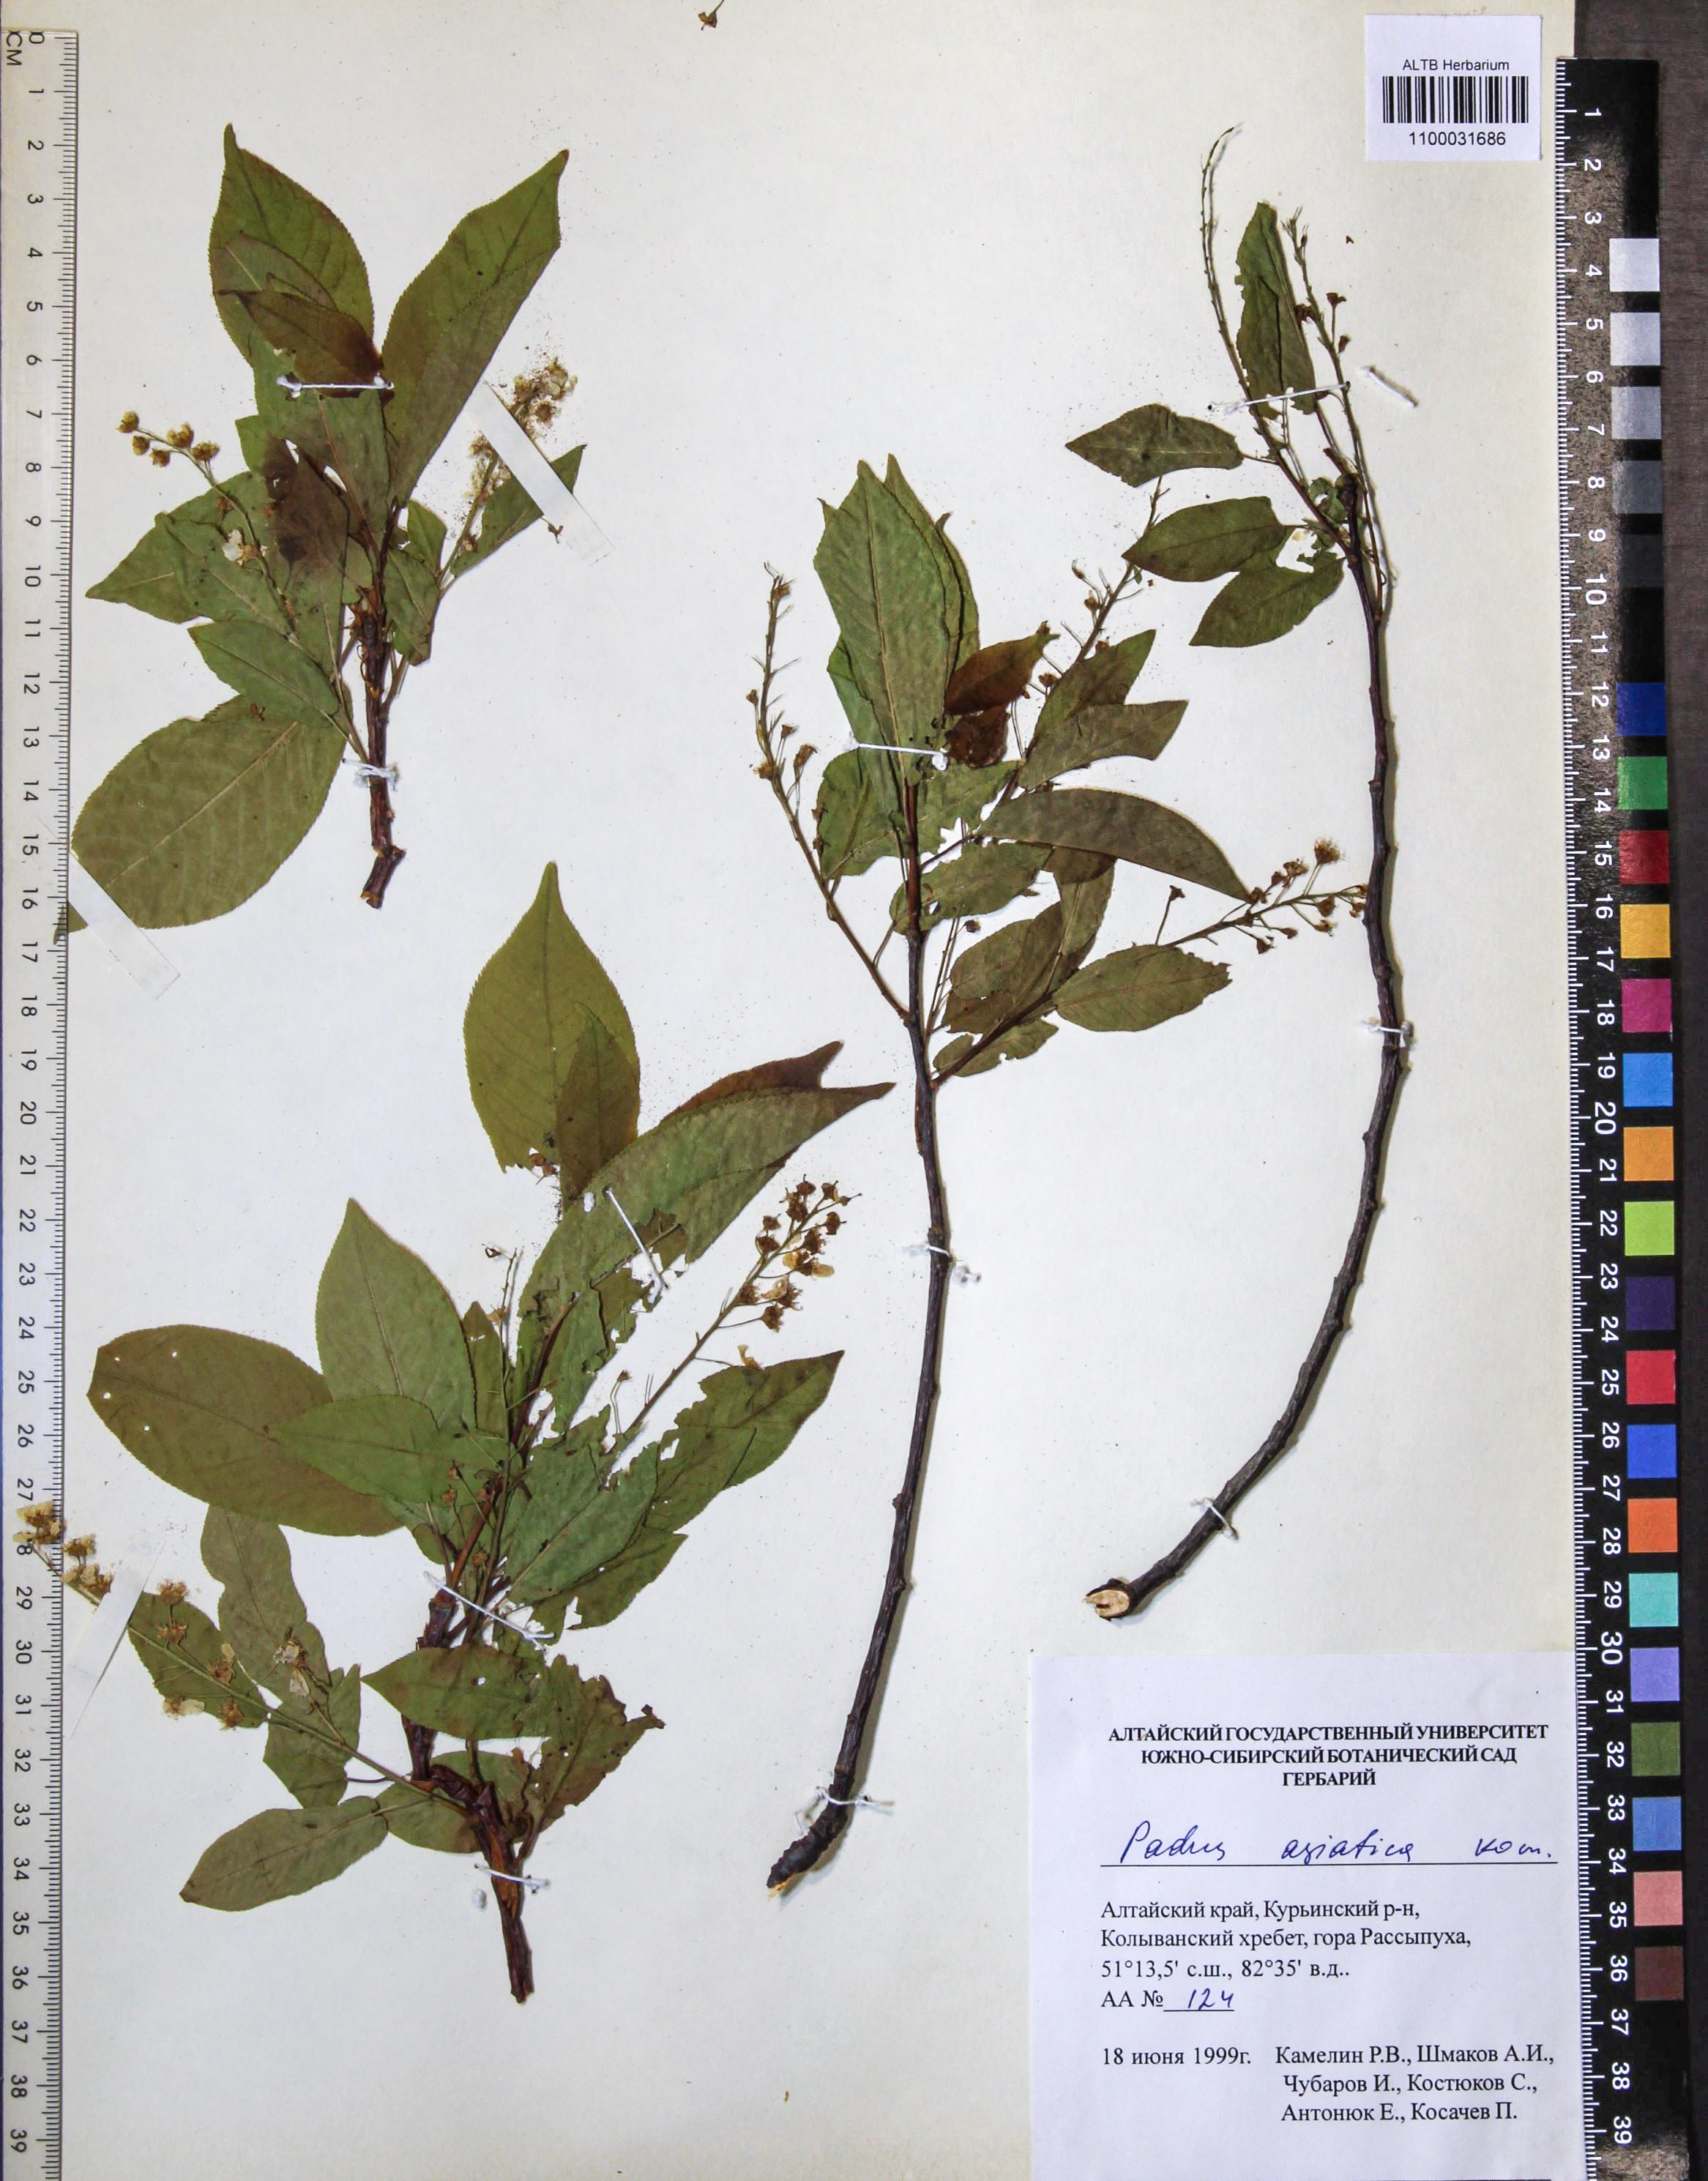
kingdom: Plantae
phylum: Tracheophyta
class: Magnoliopsida
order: Rosales
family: Rosaceae
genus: Prunus
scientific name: Prunus padus
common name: Bird cherry
